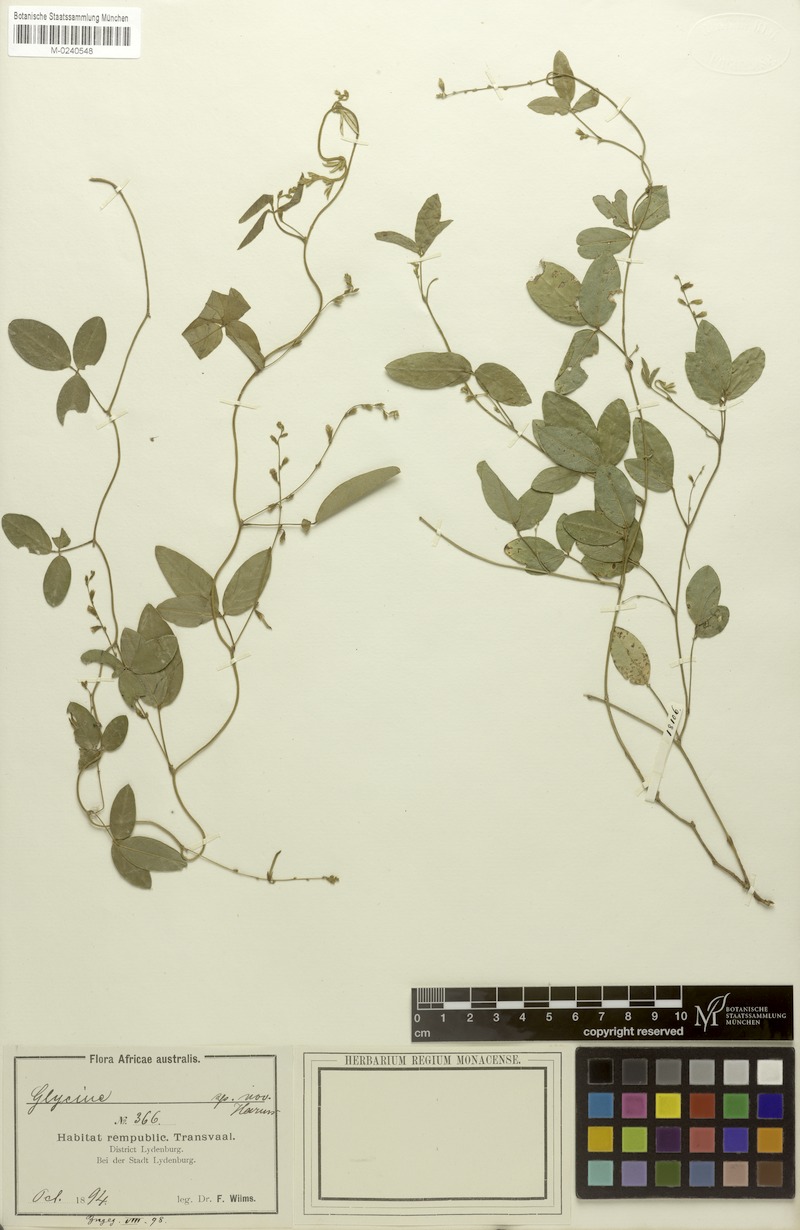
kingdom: Plantae
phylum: Tracheophyta
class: Magnoliopsida
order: Fabales
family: Fabaceae
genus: Teramnus
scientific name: Teramnus labialis
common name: Blue wiss
